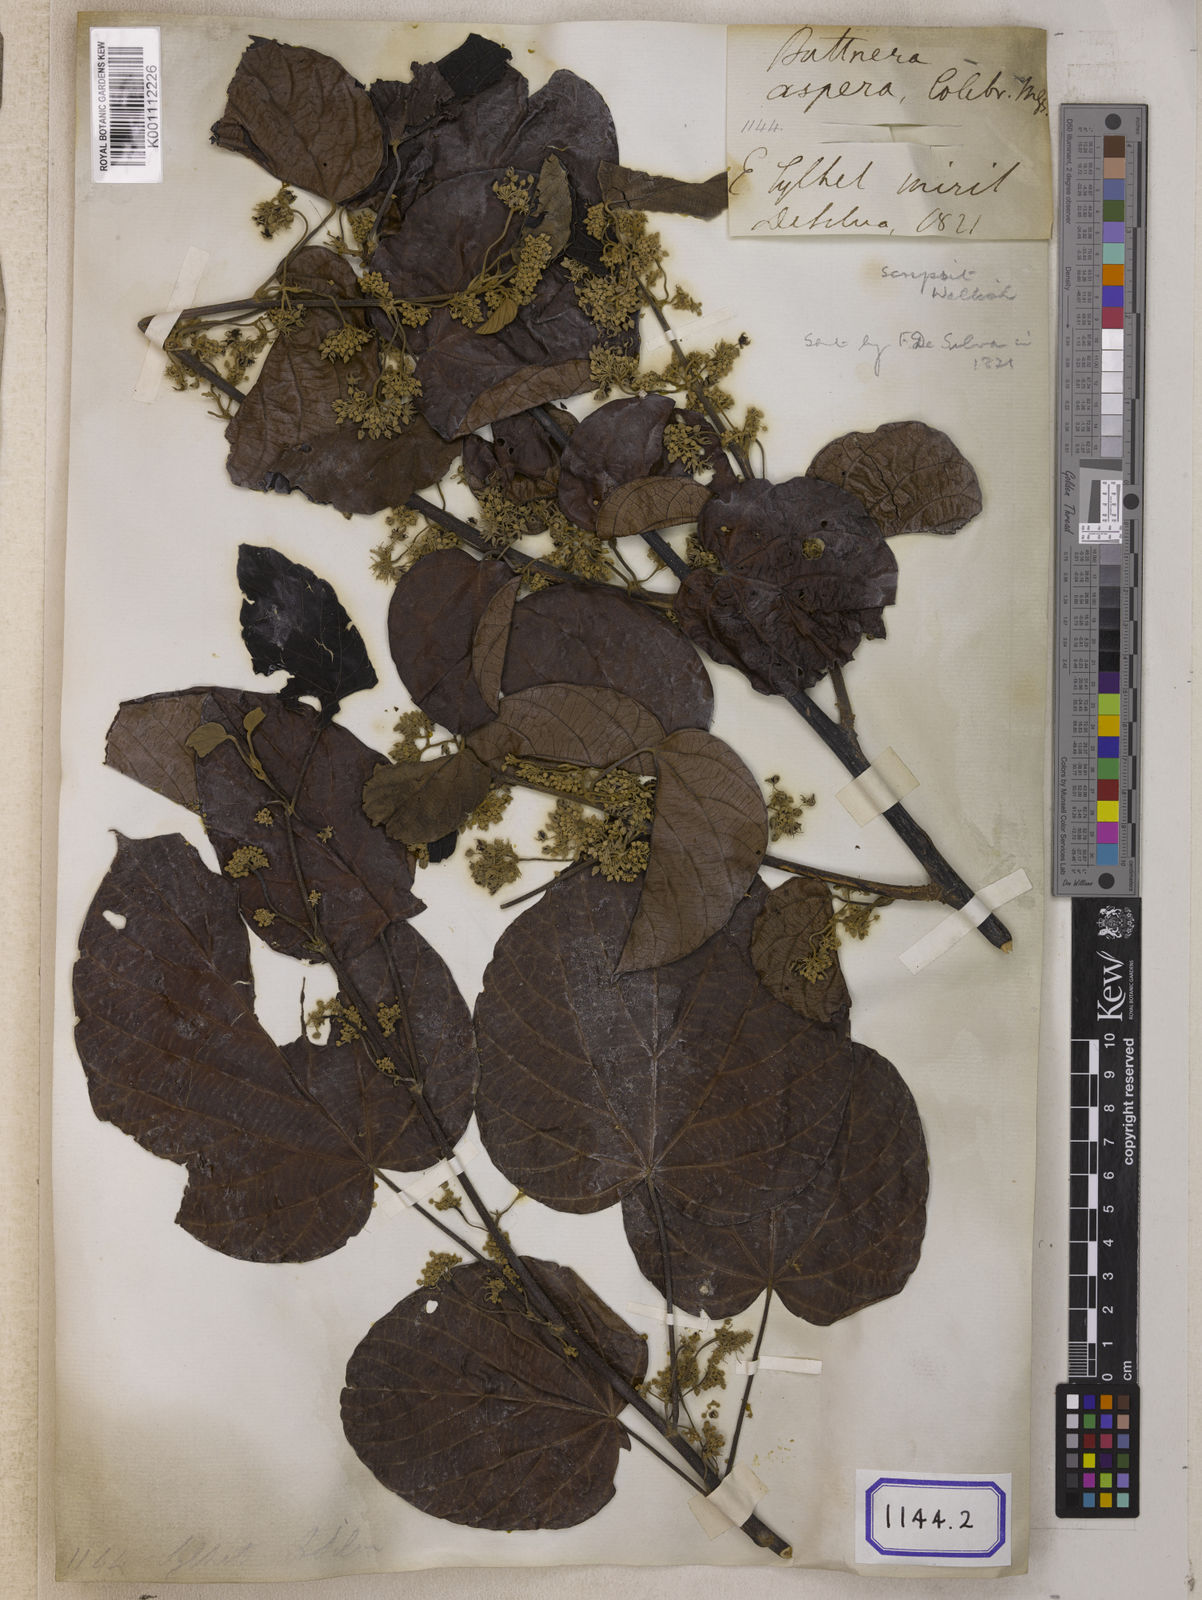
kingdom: Plantae
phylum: Tracheophyta
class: Magnoliopsida
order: Malvales
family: Malvaceae
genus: Byttneria
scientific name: Byttneria
